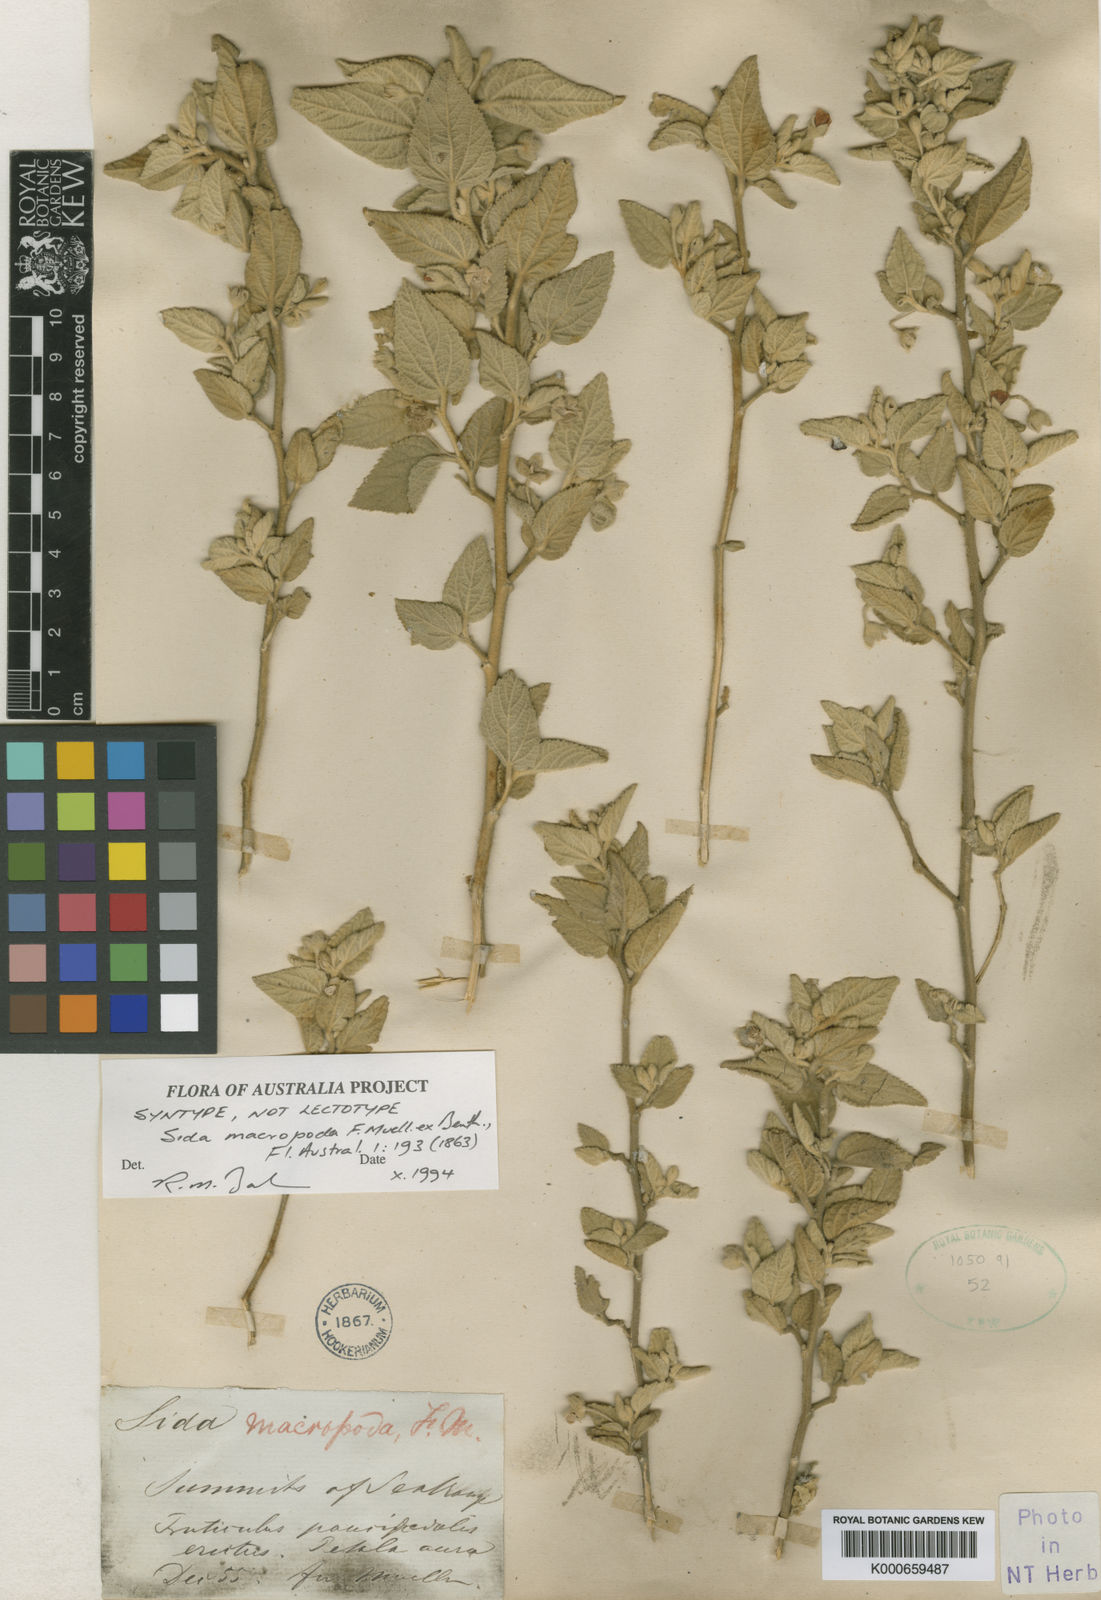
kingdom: Plantae
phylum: Tracheophyta
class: Magnoliopsida
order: Malvales
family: Malvaceae
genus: Sida
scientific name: Sida macropoda
